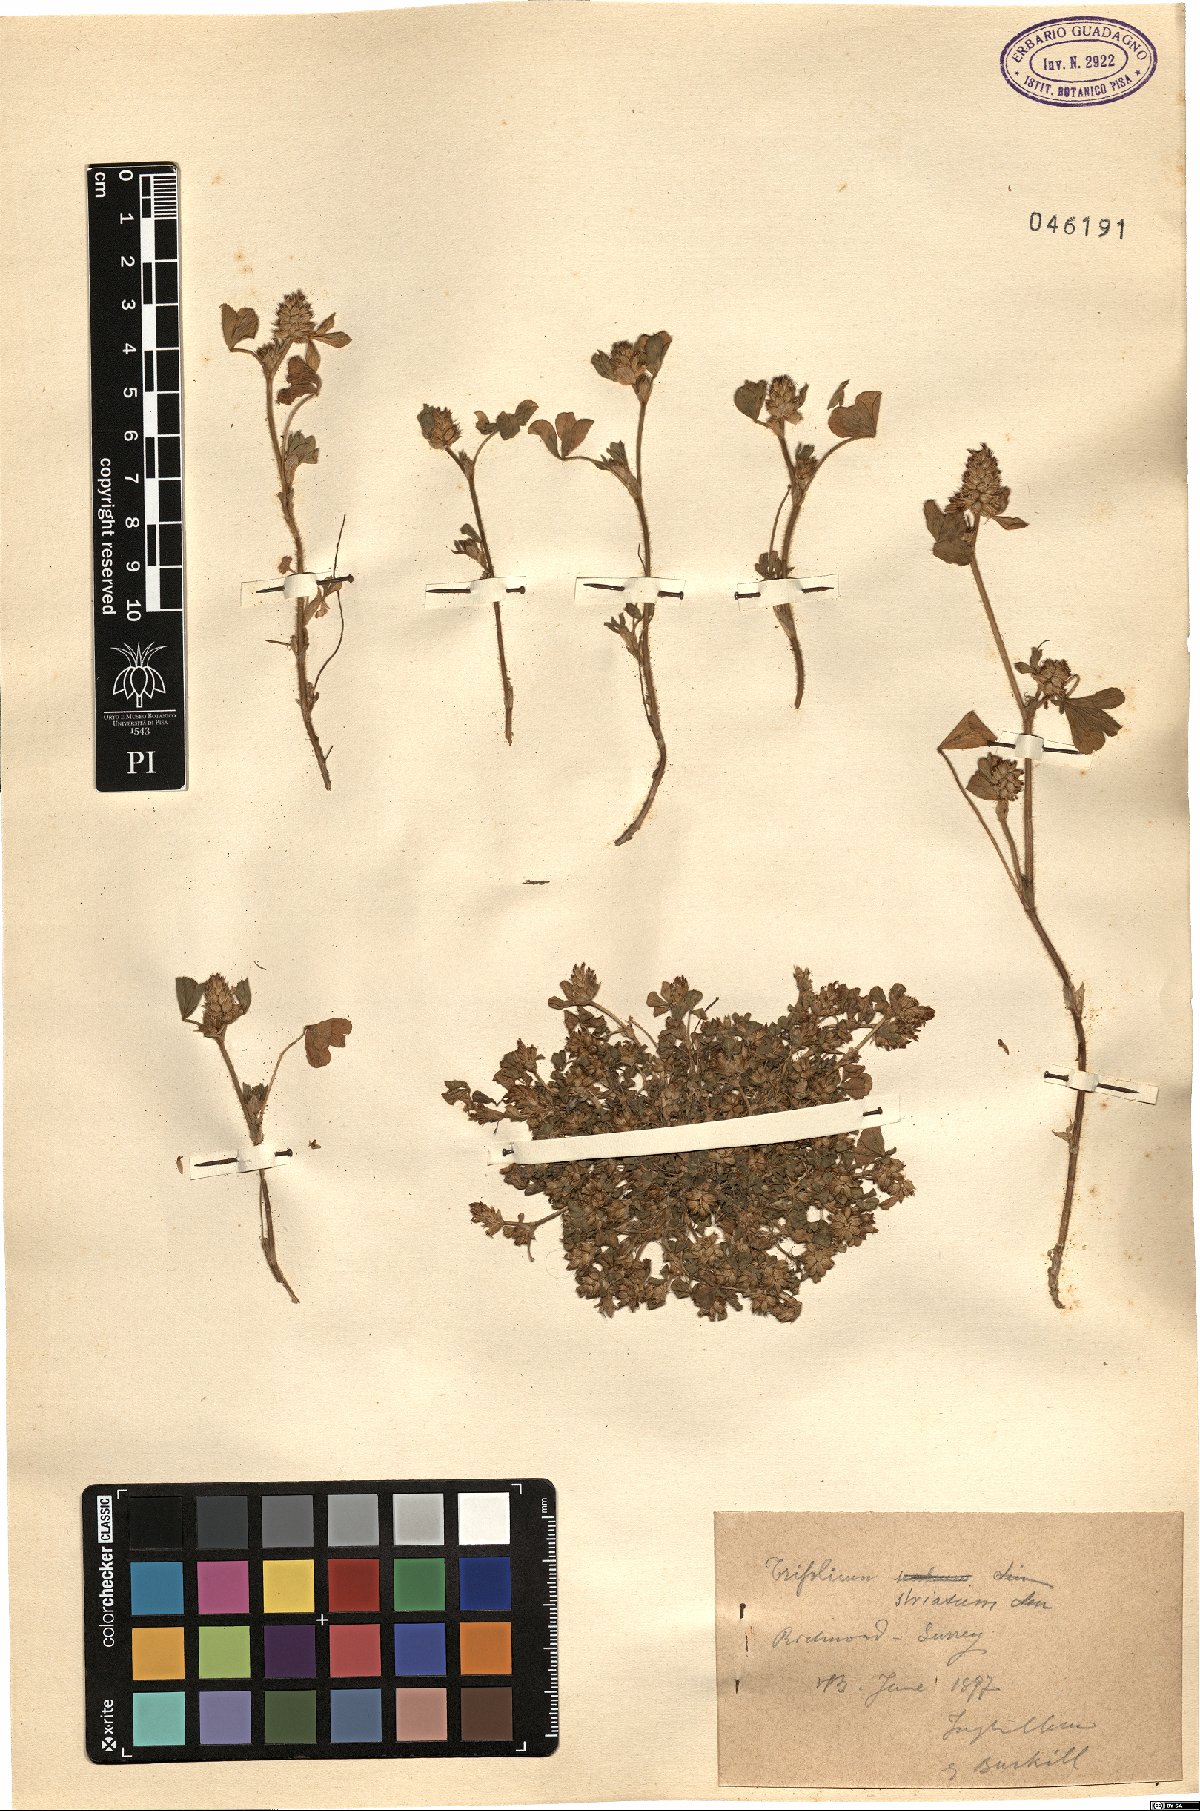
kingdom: Plantae
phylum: Tracheophyta
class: Magnoliopsida
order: Fabales
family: Fabaceae
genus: Trifolium
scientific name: Trifolium striatum
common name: Knotted clover
